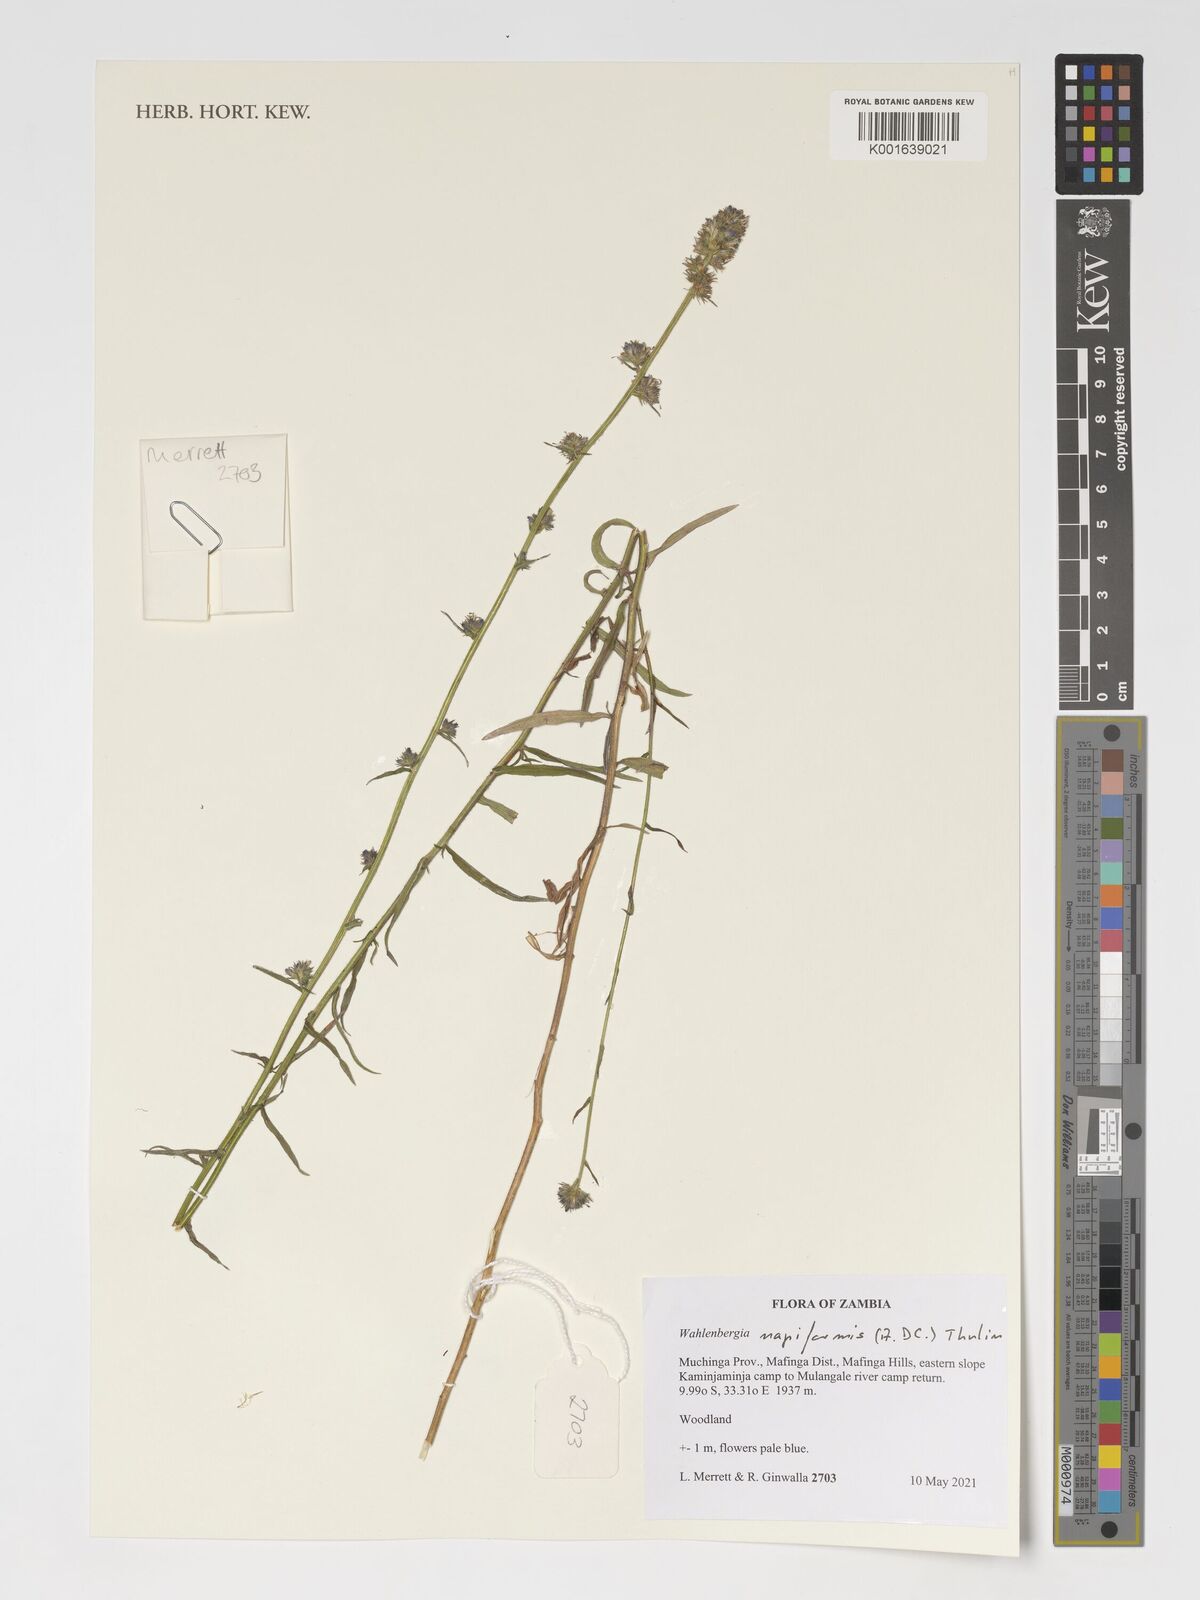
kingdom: Plantae
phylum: Tracheophyta
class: Magnoliopsida
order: Asterales
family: Campanulaceae
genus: Wahlenbergia
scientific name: Wahlenbergia napiformis
